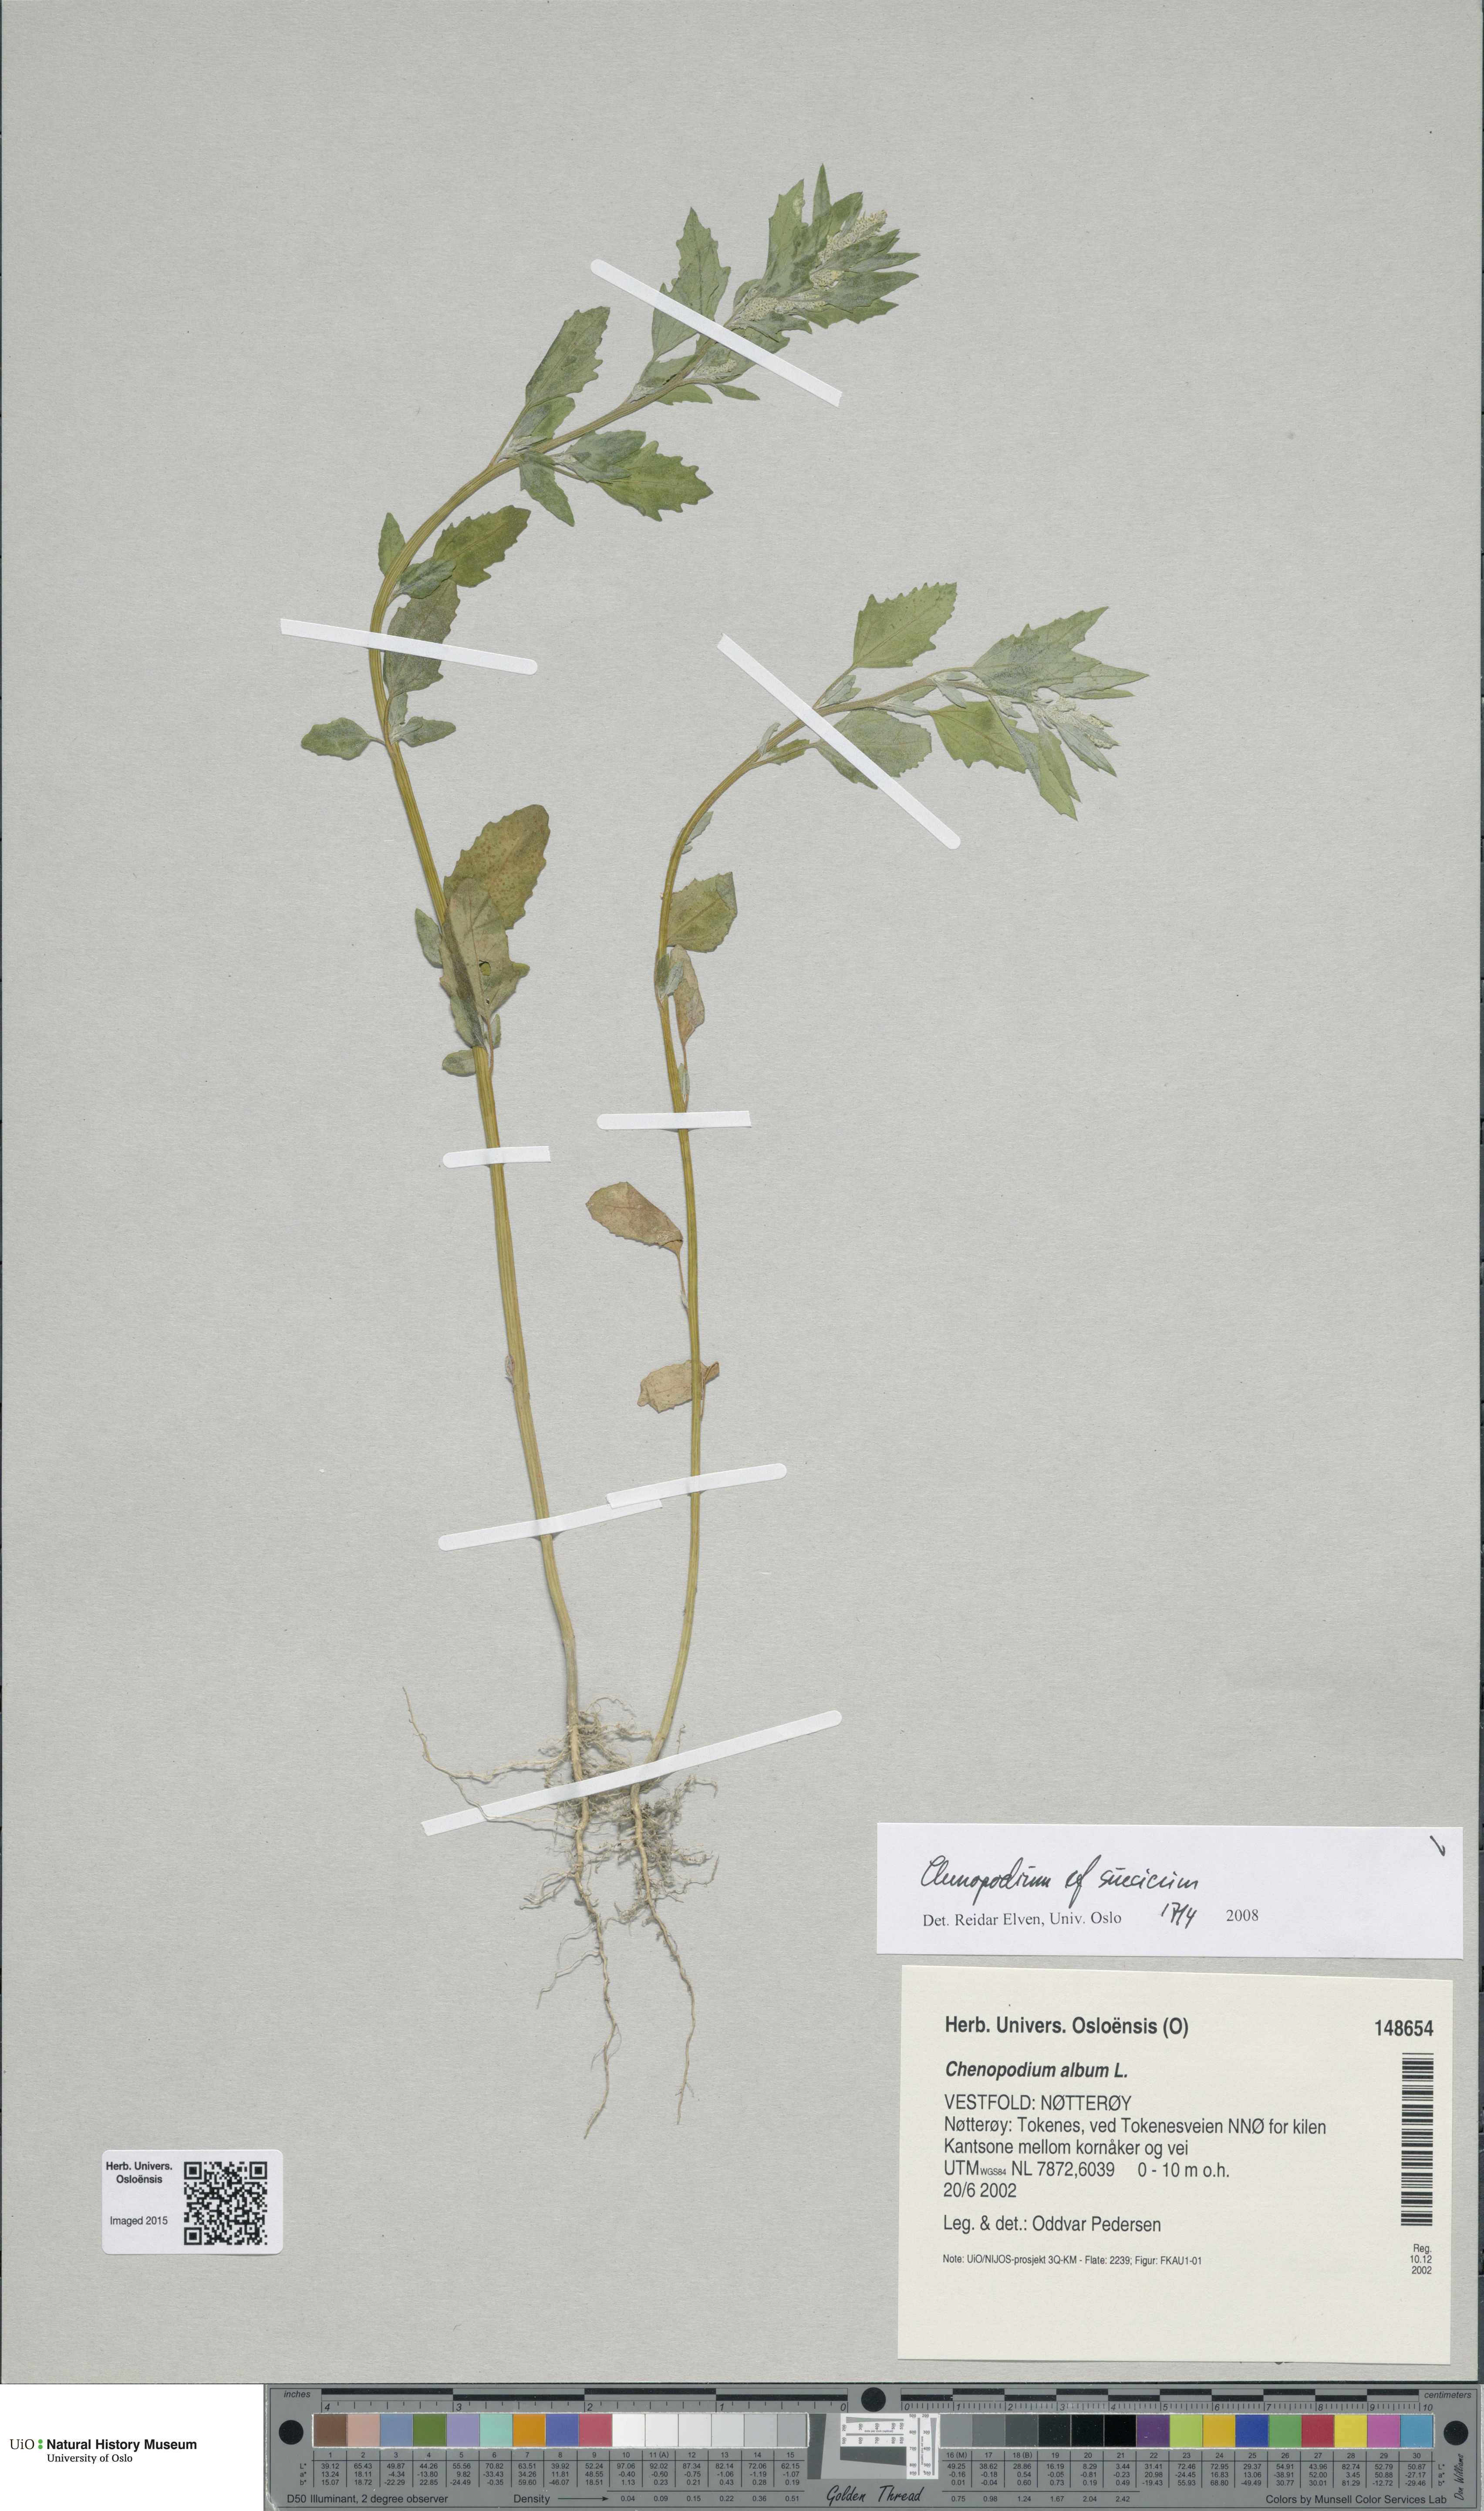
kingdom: Plantae
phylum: Tracheophyta
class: Magnoliopsida
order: Caryophyllales
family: Amaranthaceae
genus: Chenopodium
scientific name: Chenopodium suecicum
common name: Swedish goosefoot
